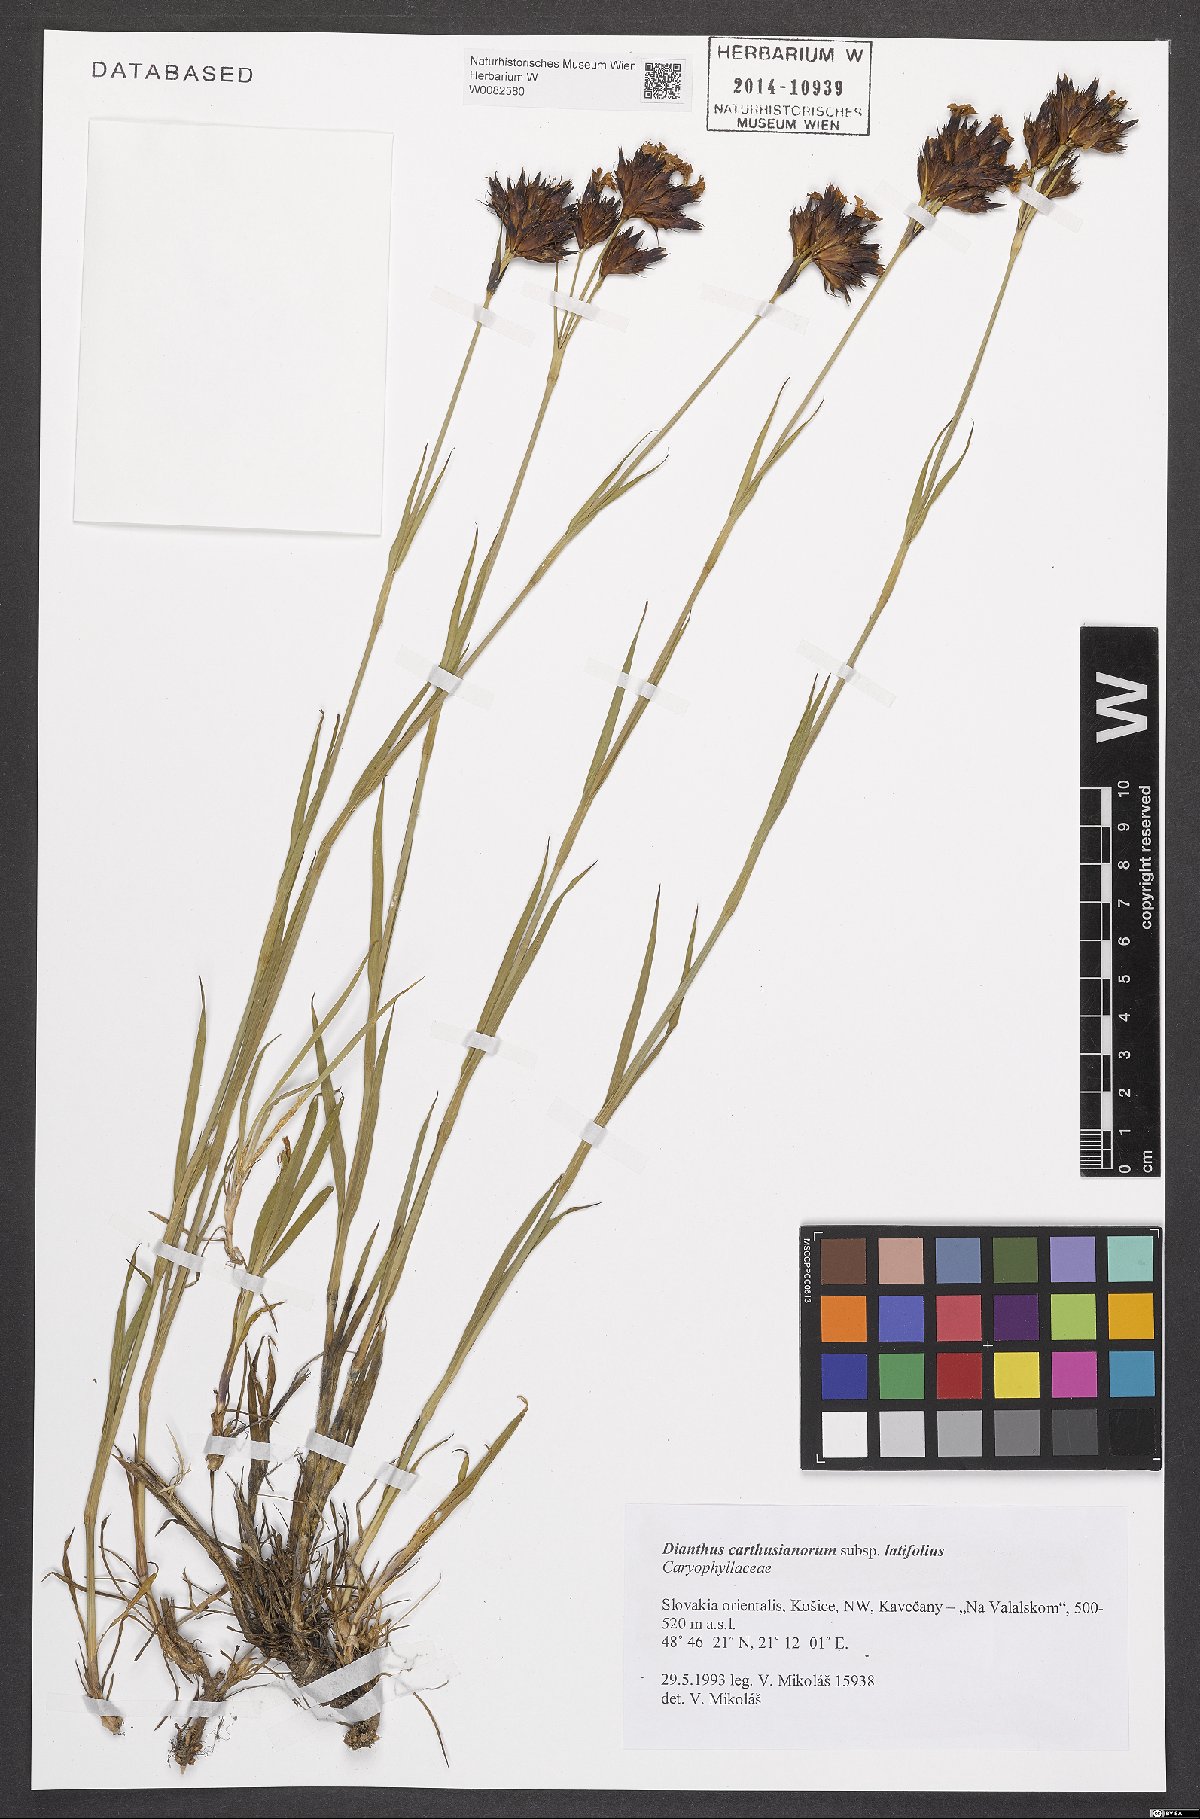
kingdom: Plantae
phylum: Tracheophyta
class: Magnoliopsida
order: Caryophyllales
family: Caryophyllaceae
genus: Dianthus
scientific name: Dianthus carthusianorum
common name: Carthusian pink
